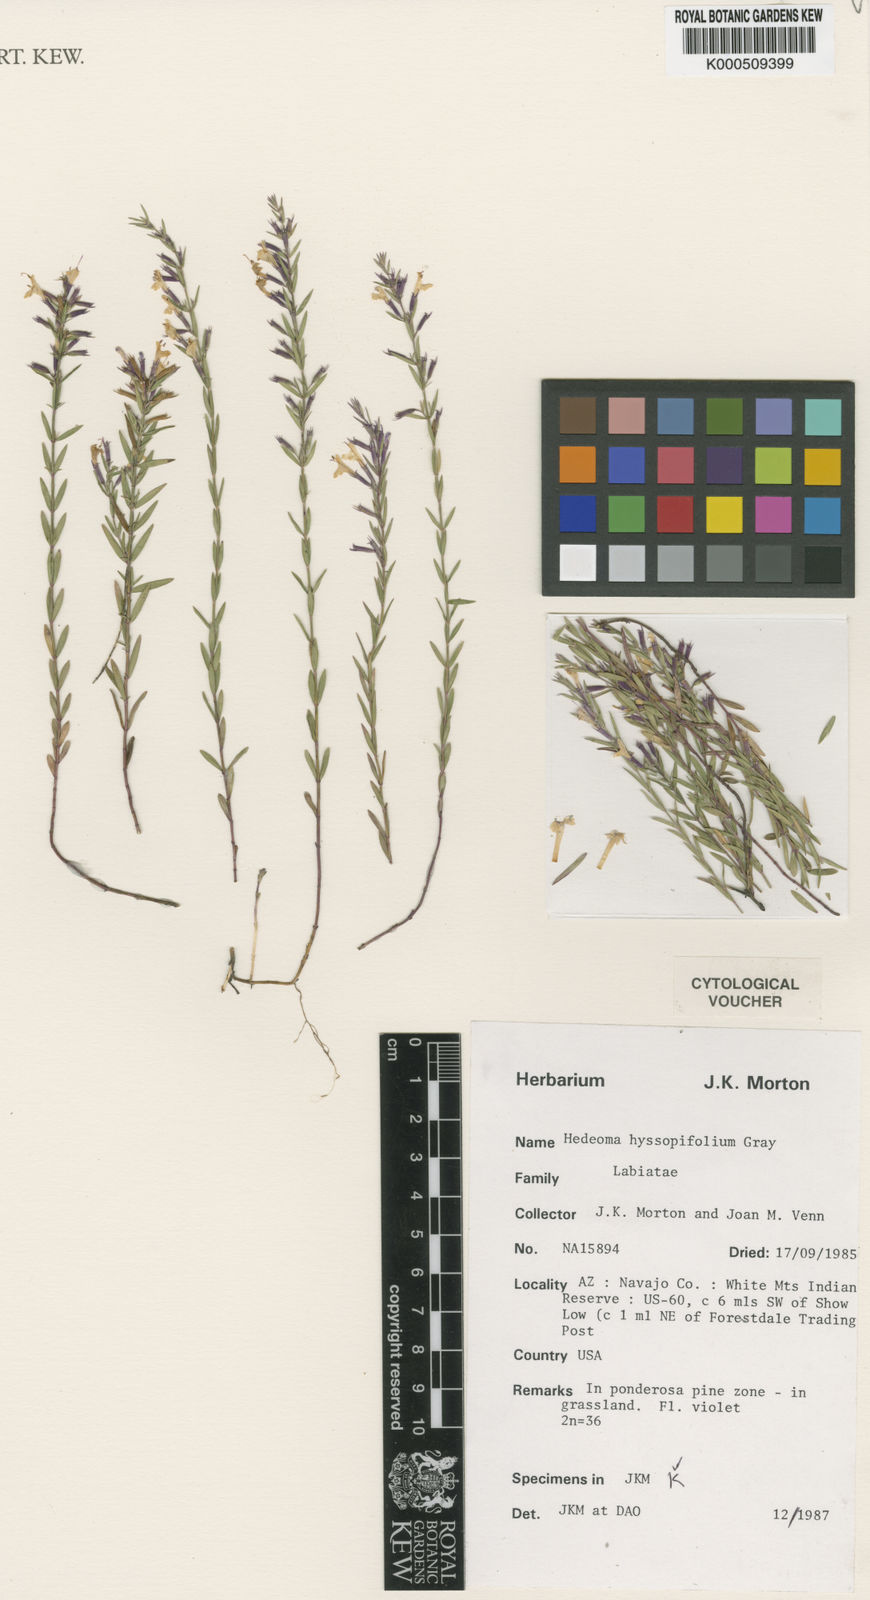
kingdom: Plantae
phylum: Tracheophyta
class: Magnoliopsida
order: Lamiales
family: Lamiaceae
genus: Hedeoma
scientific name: Hedeoma hyssopifolia
